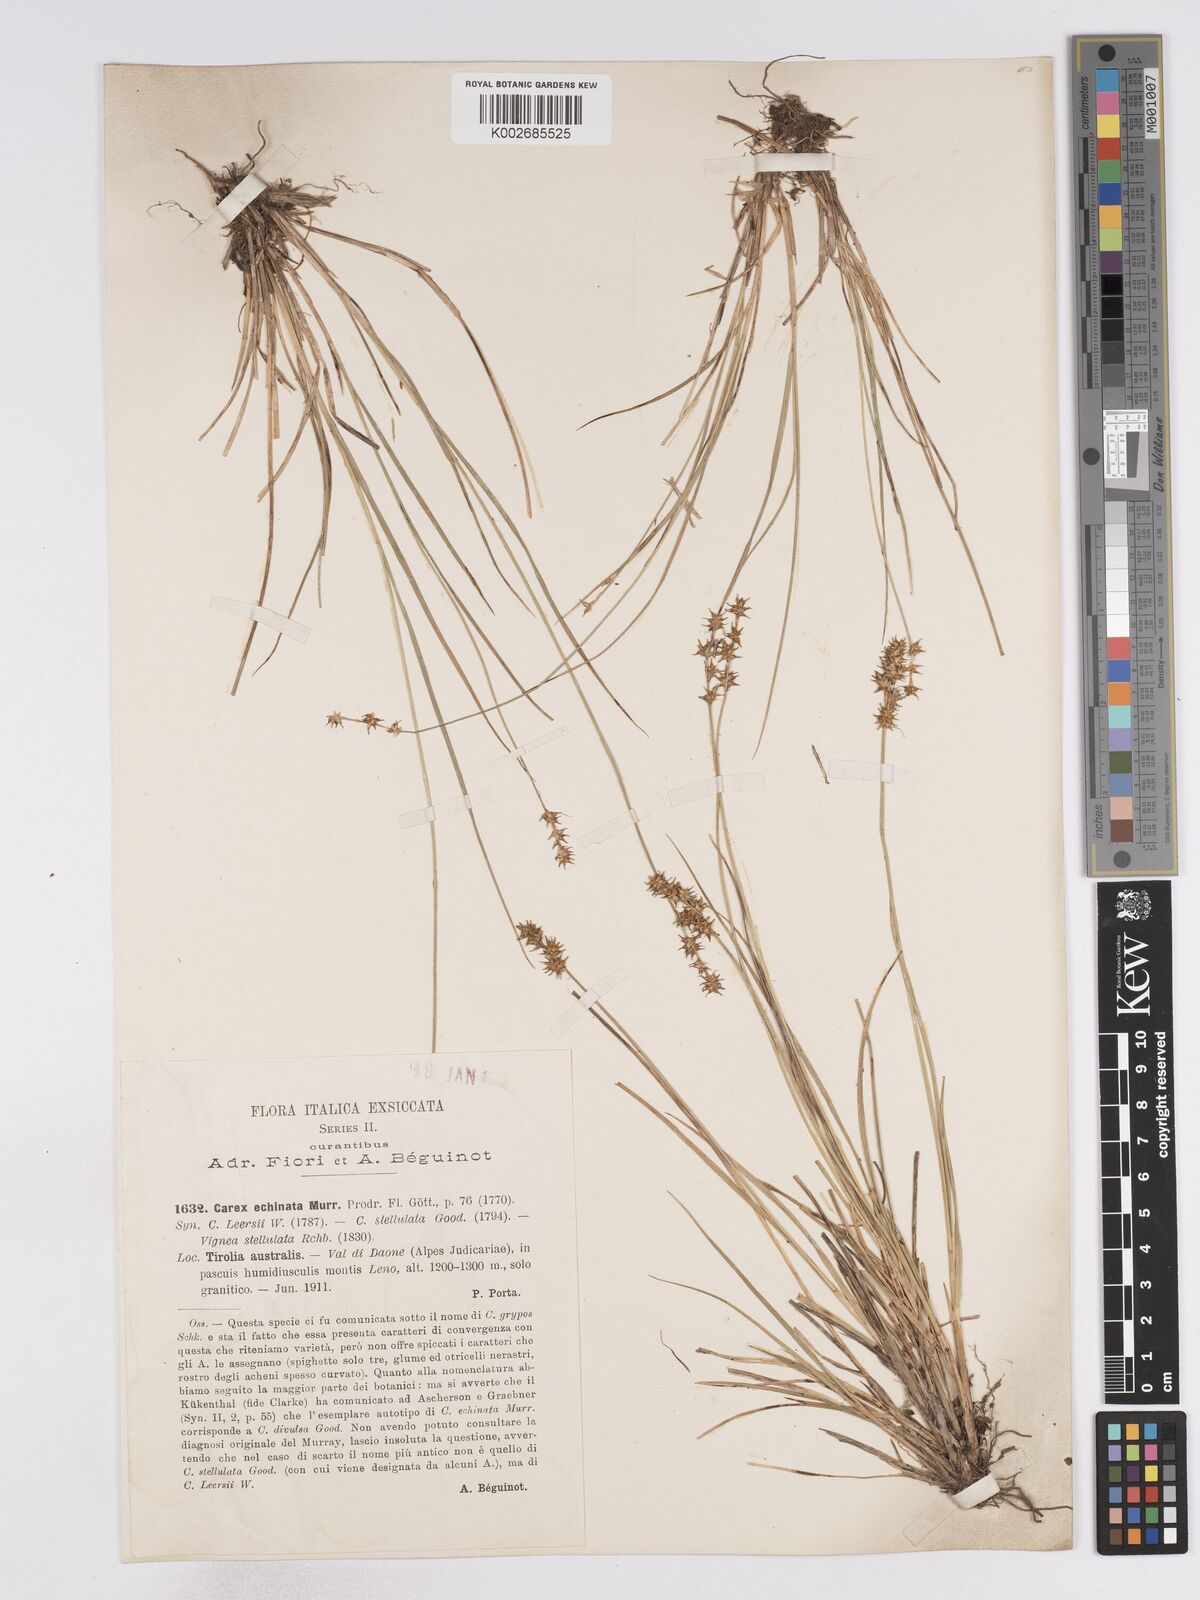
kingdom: Plantae
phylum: Tracheophyta
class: Liliopsida
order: Poales
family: Cyperaceae
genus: Carex
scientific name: Carex echinata
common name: Star sedge
